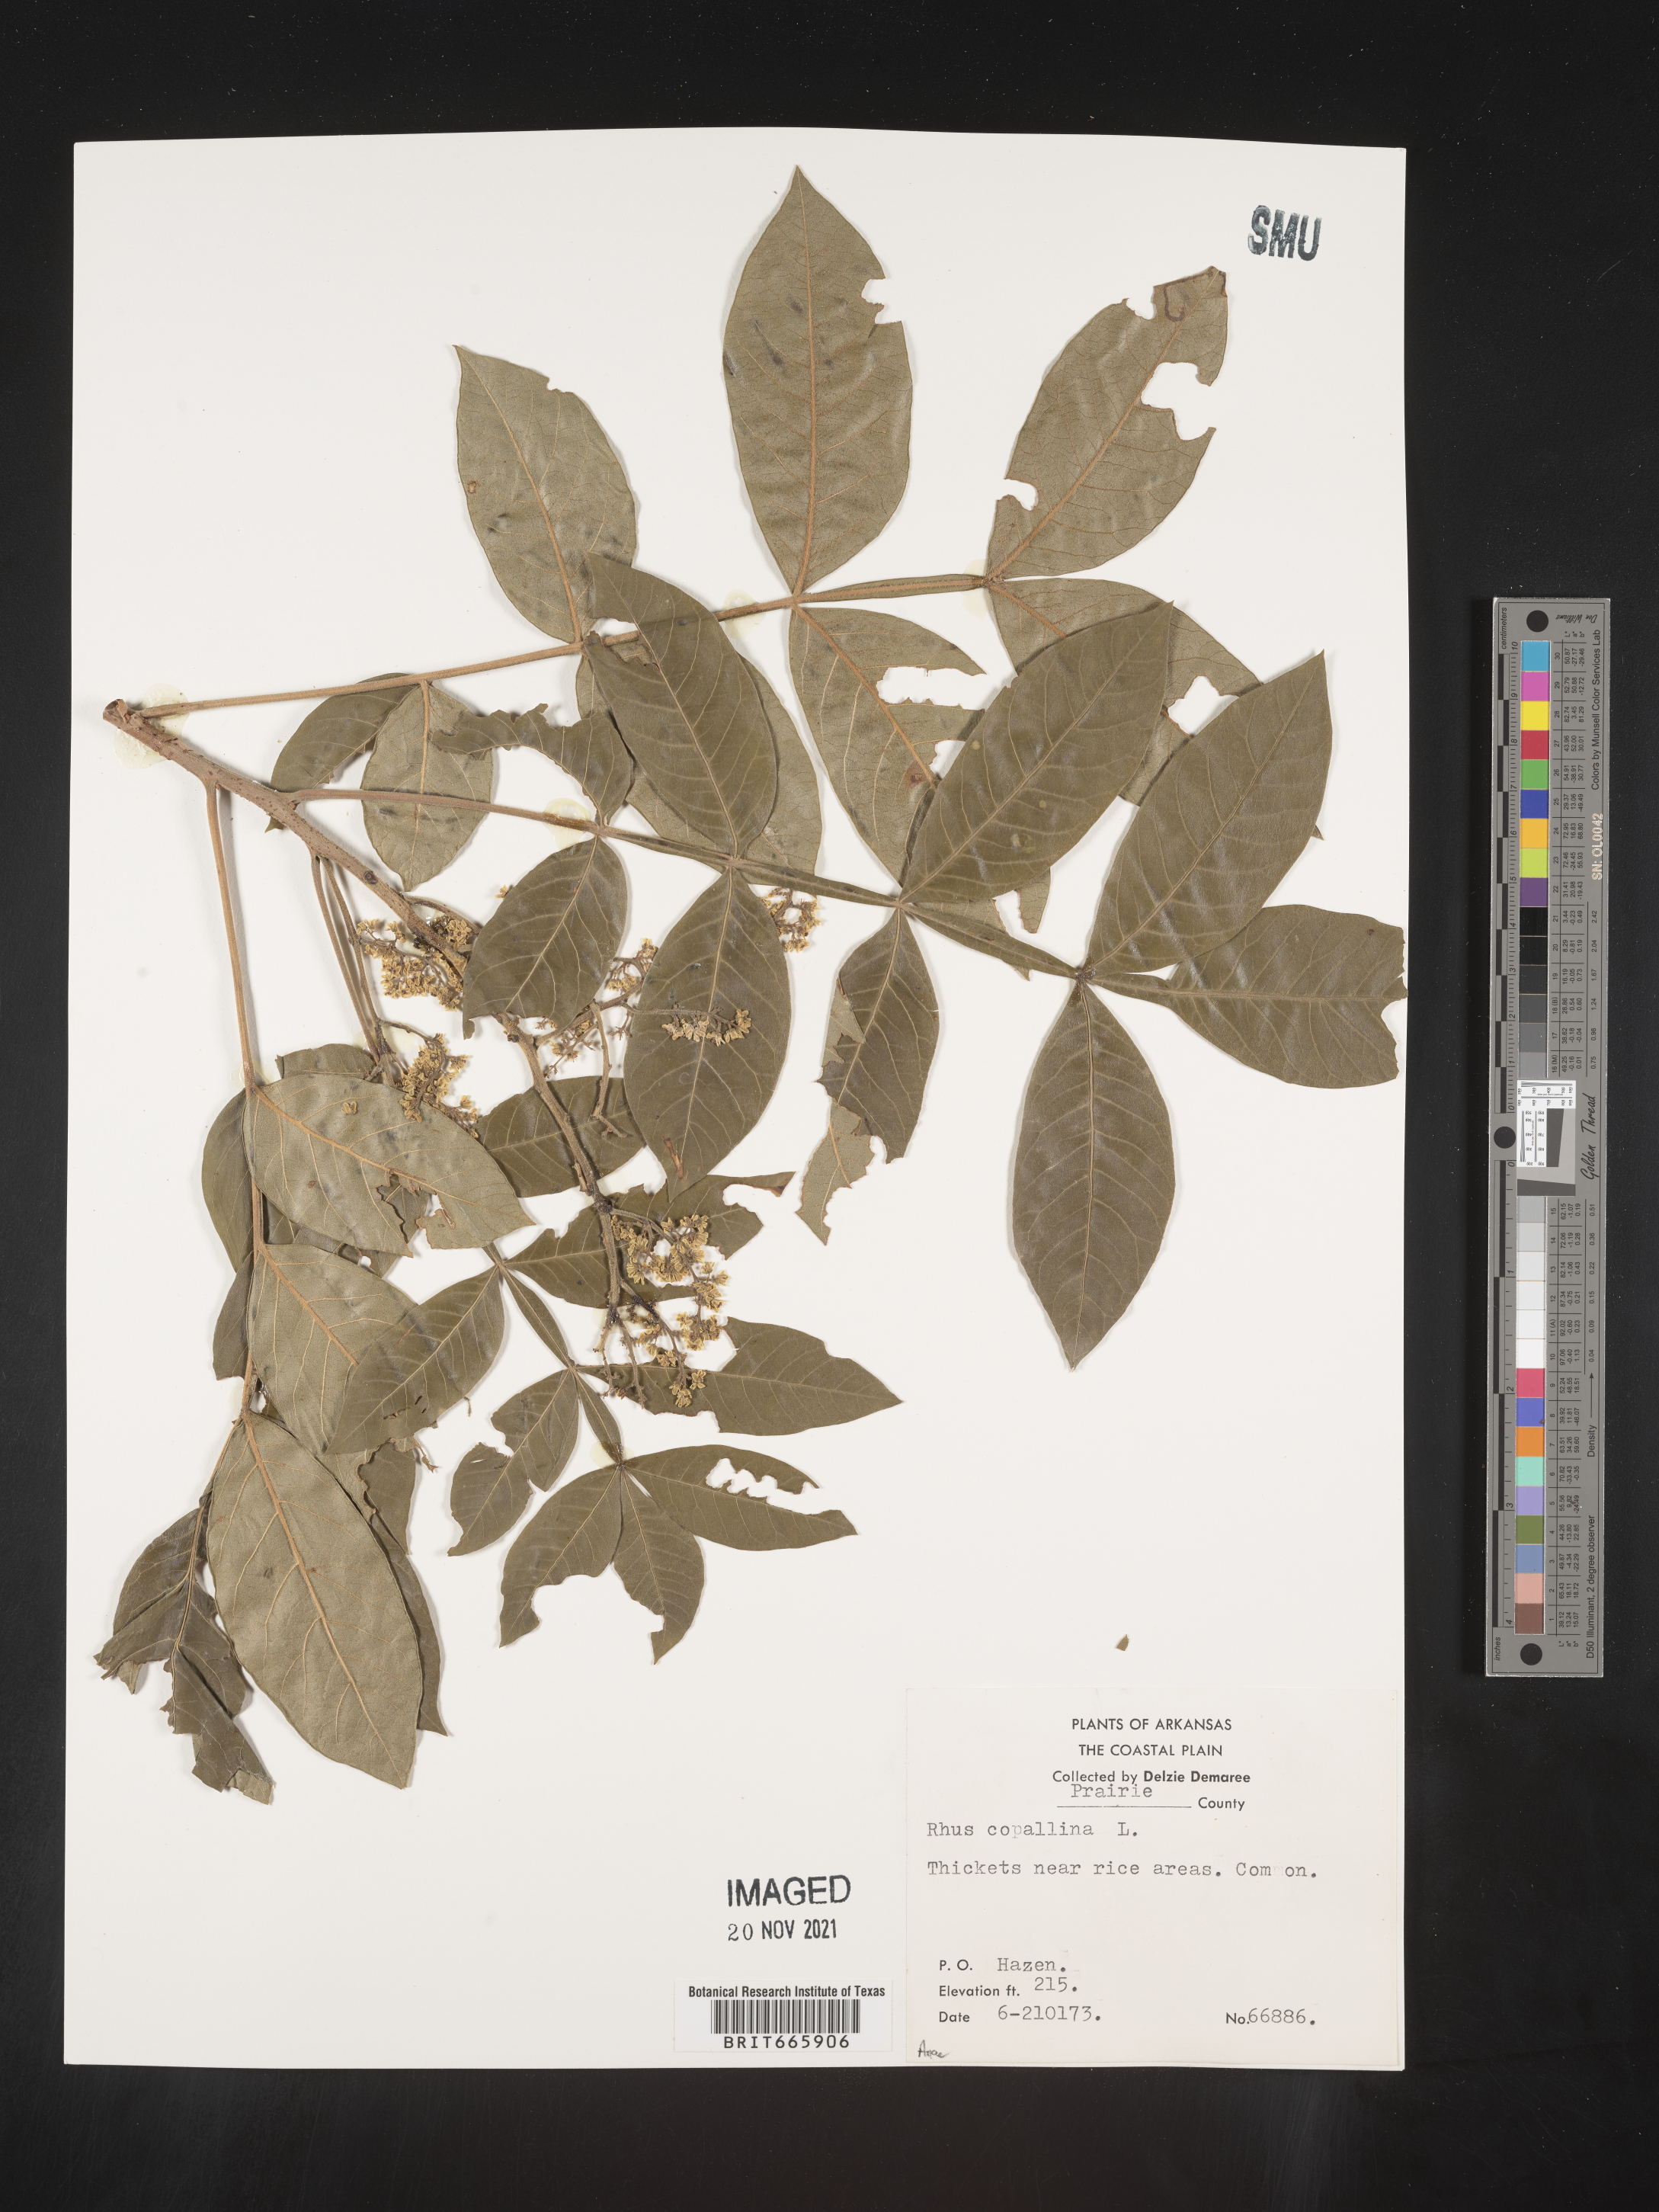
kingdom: Plantae
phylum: Tracheophyta
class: Magnoliopsida
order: Sapindales
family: Anacardiaceae
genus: Rhus
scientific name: Rhus copallina
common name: Shining sumac
